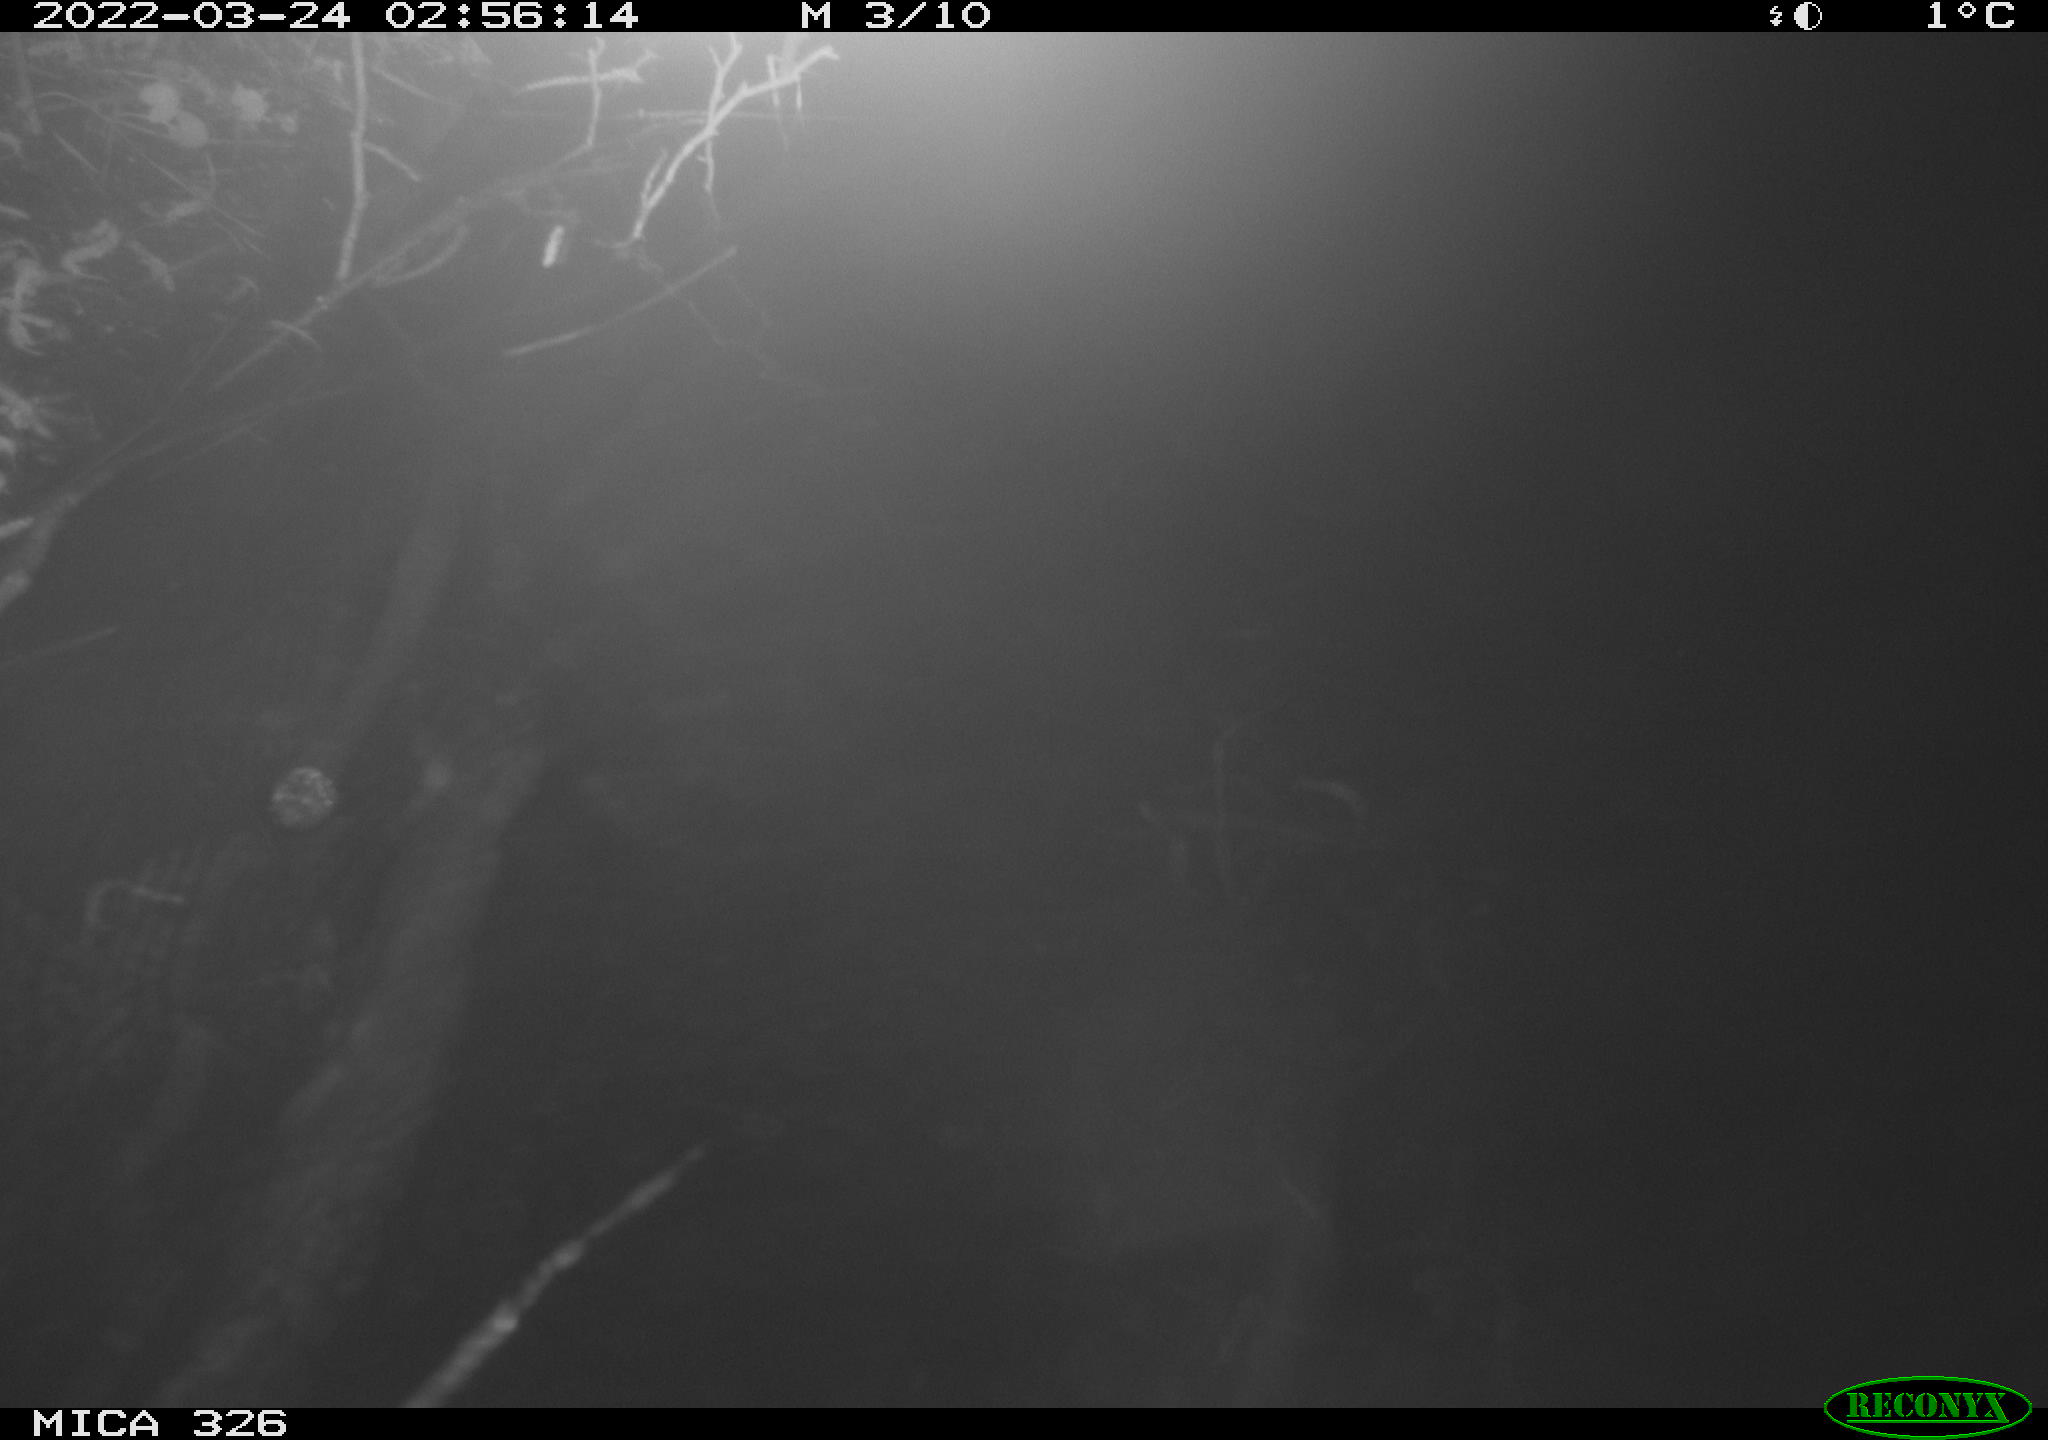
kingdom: Animalia
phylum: Chordata
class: Mammalia
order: Rodentia
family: Muridae
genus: Rattus
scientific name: Rattus norvegicus
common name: Brown rat
